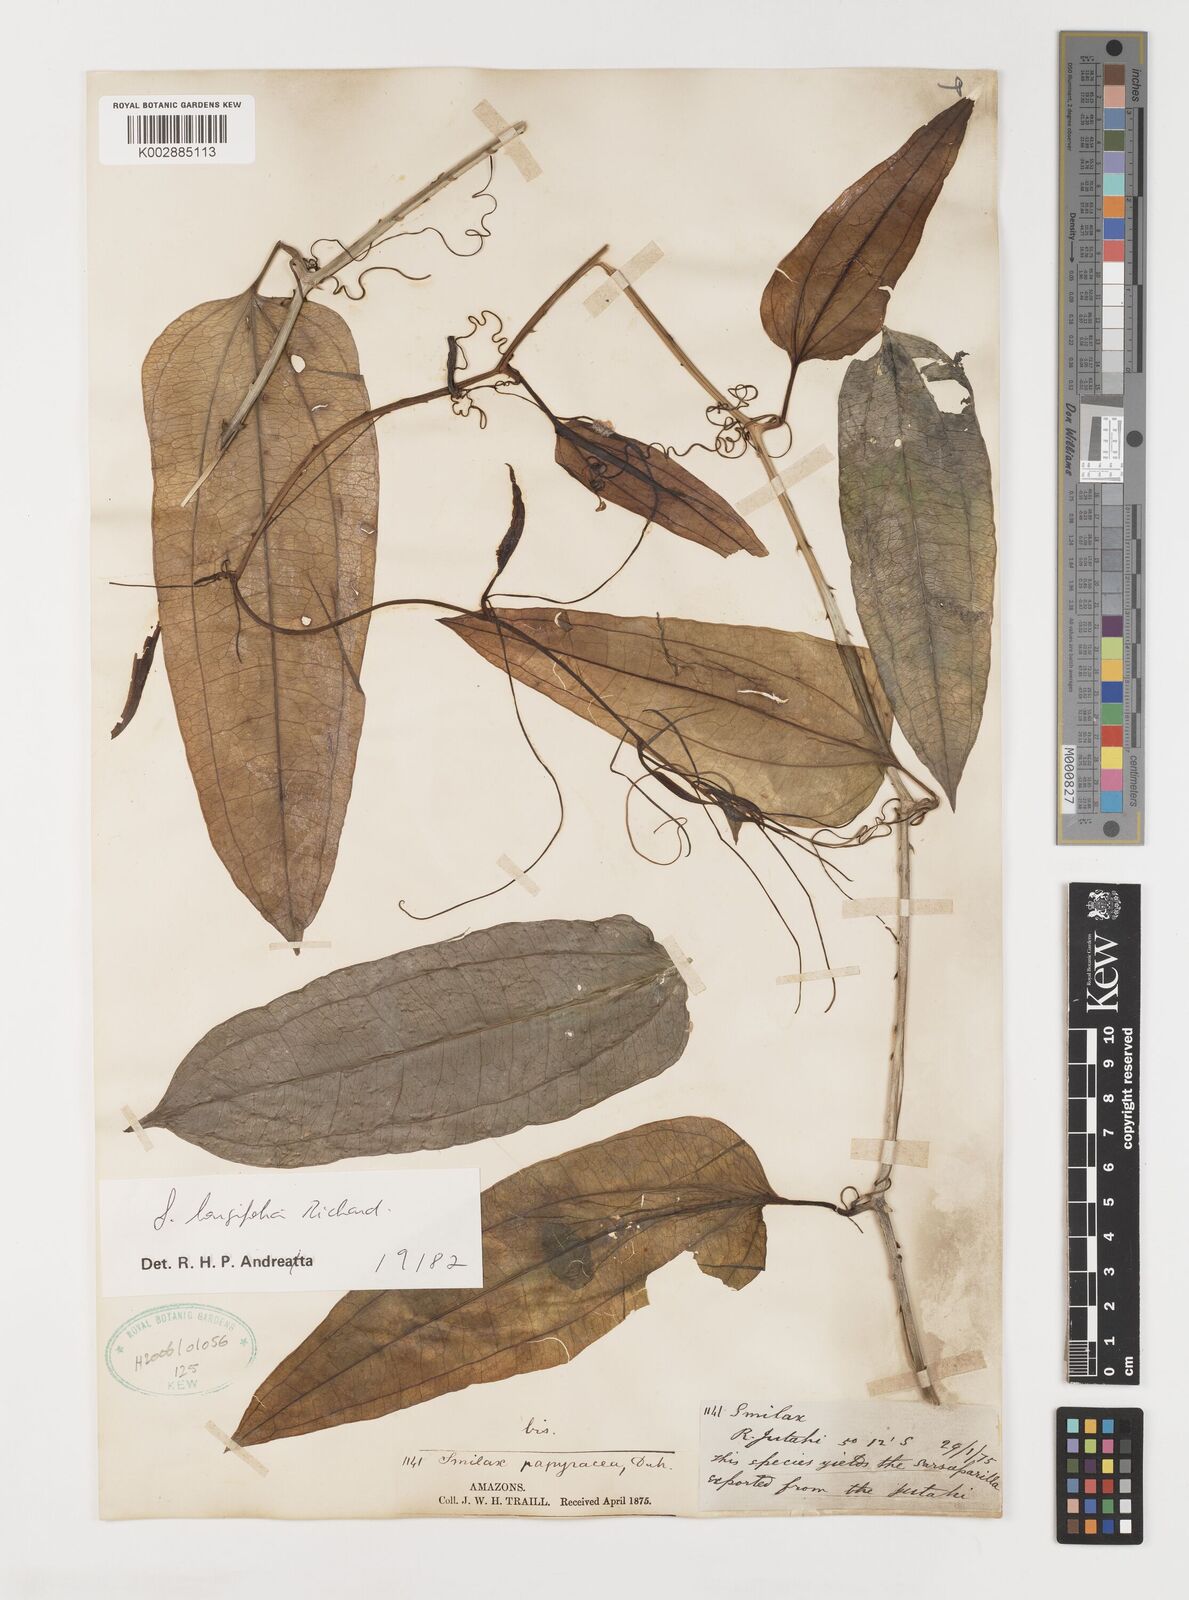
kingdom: Plantae
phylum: Tracheophyta
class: Liliopsida
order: Liliales
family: Smilacaceae
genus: Smilax
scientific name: Smilax longifolia
